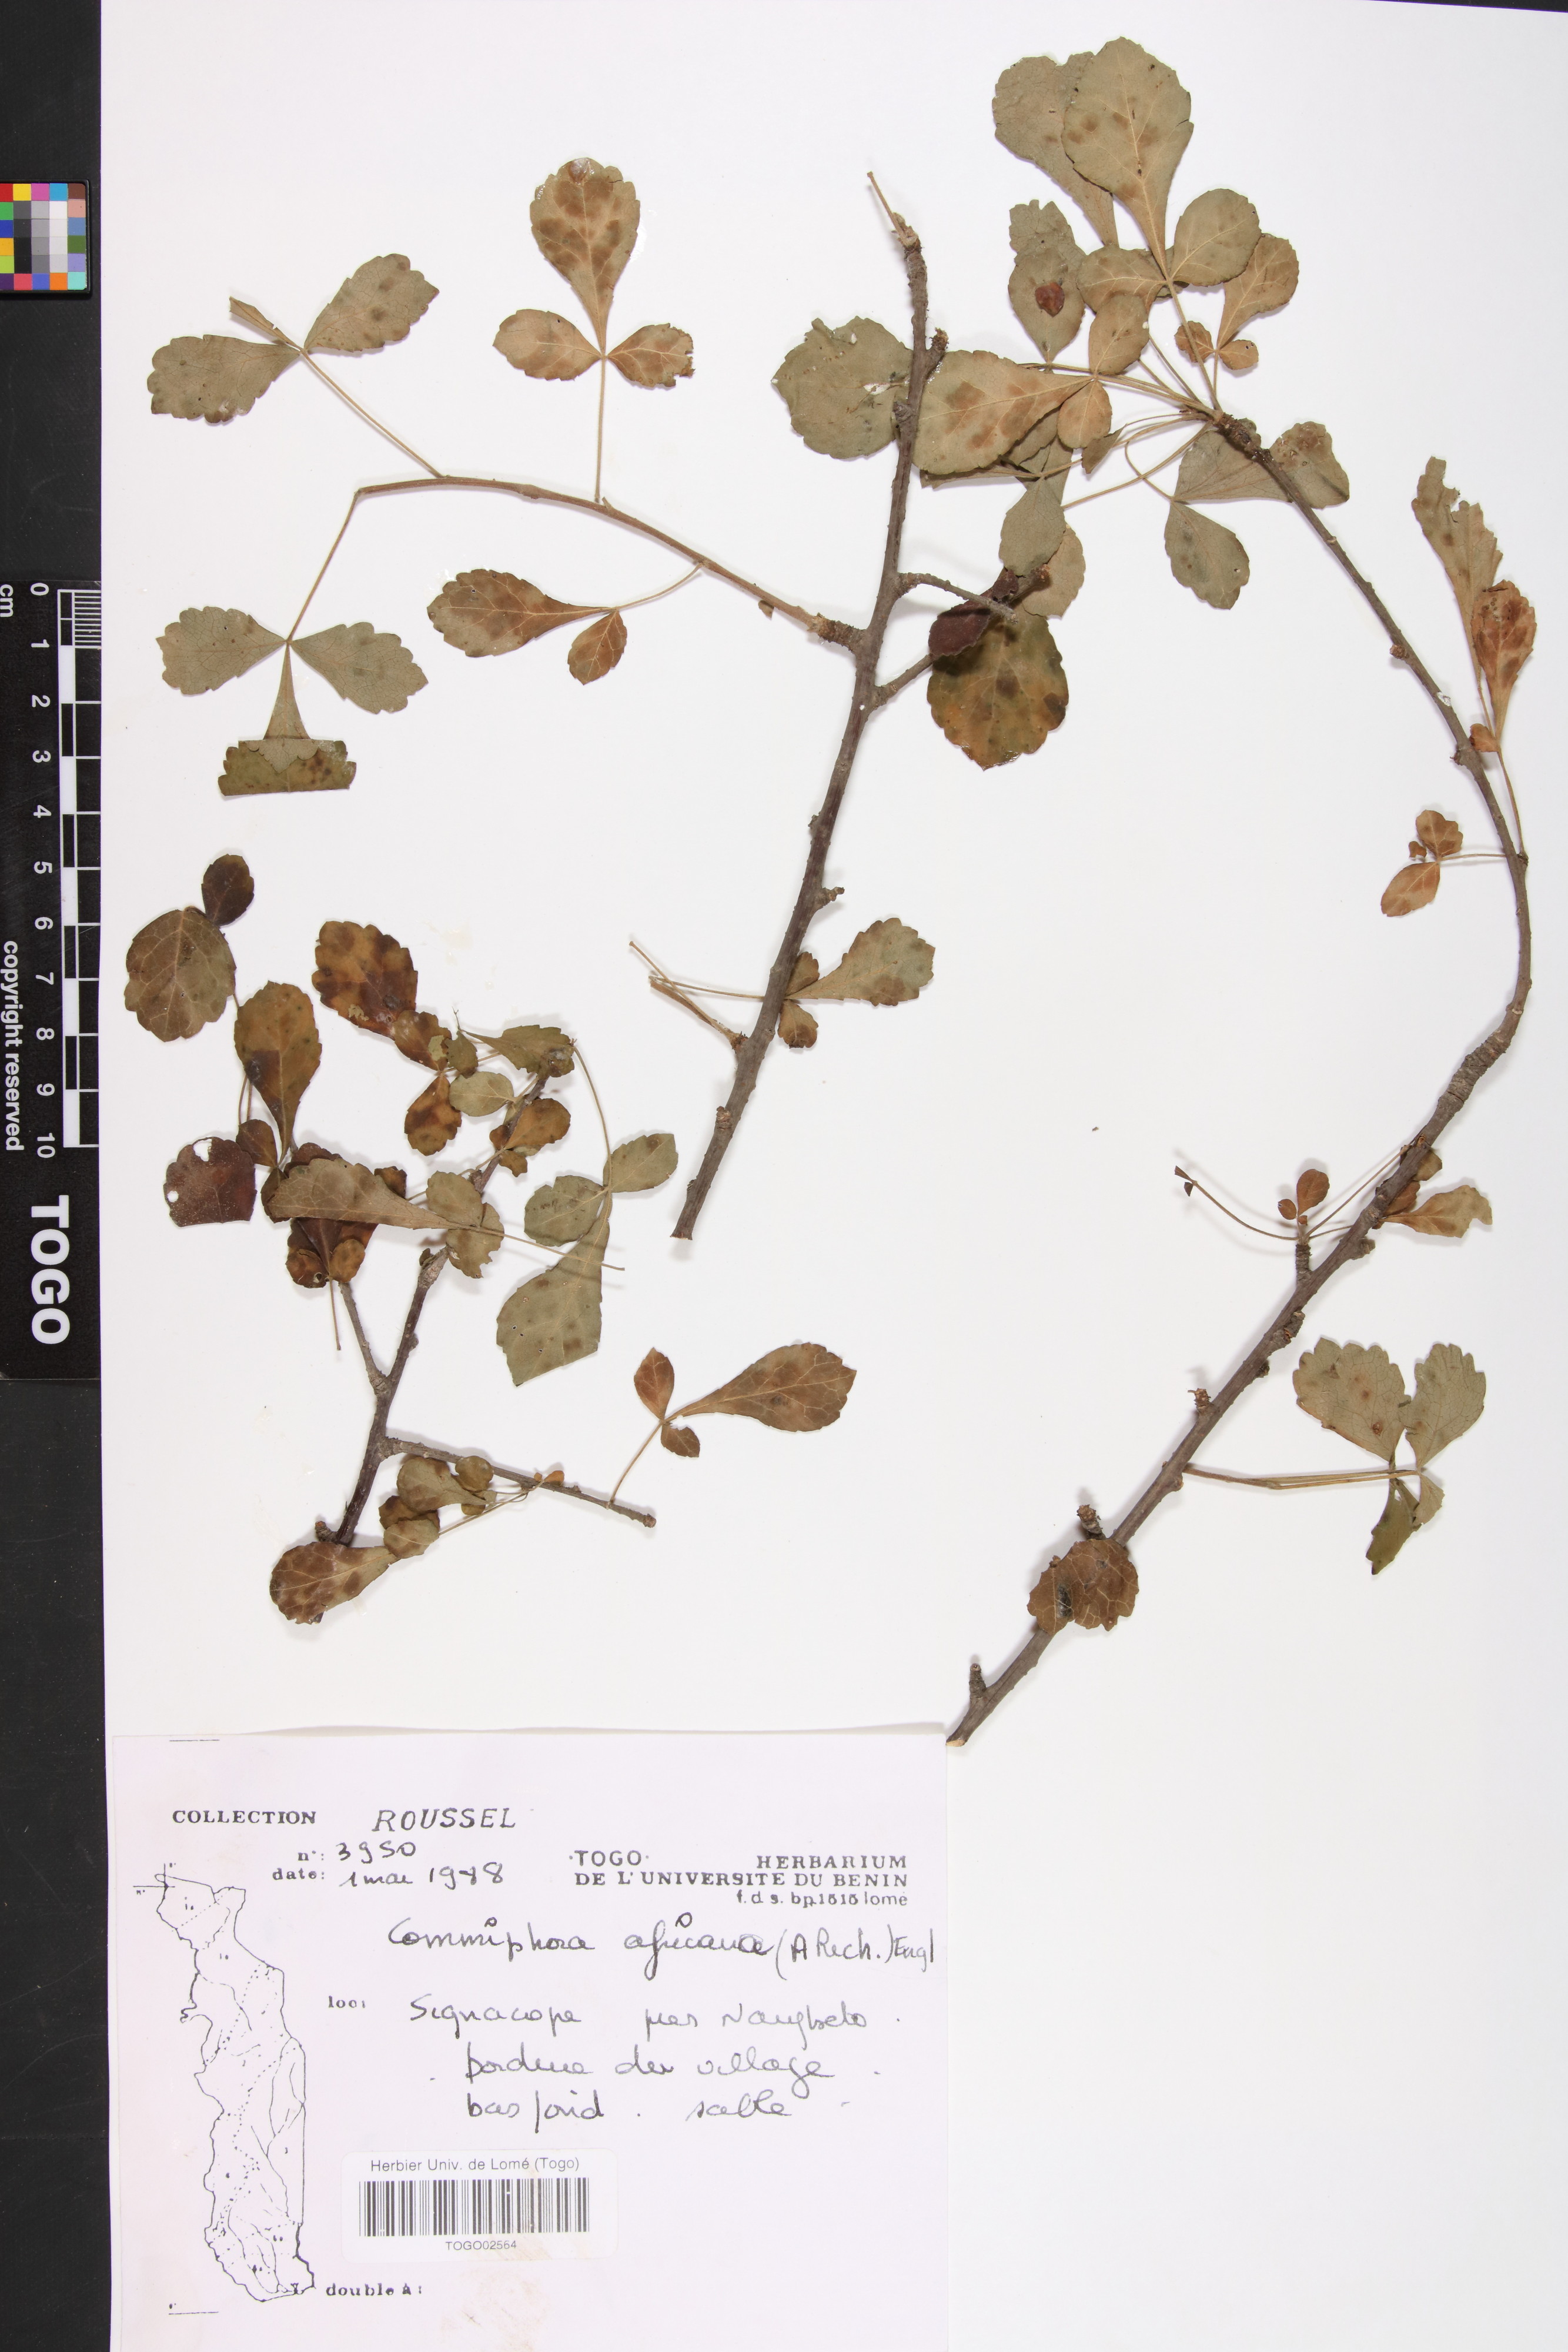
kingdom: Plantae
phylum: Tracheophyta
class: Magnoliopsida
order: Sapindales
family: Burseraceae
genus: Commiphora
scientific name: Commiphora africana
